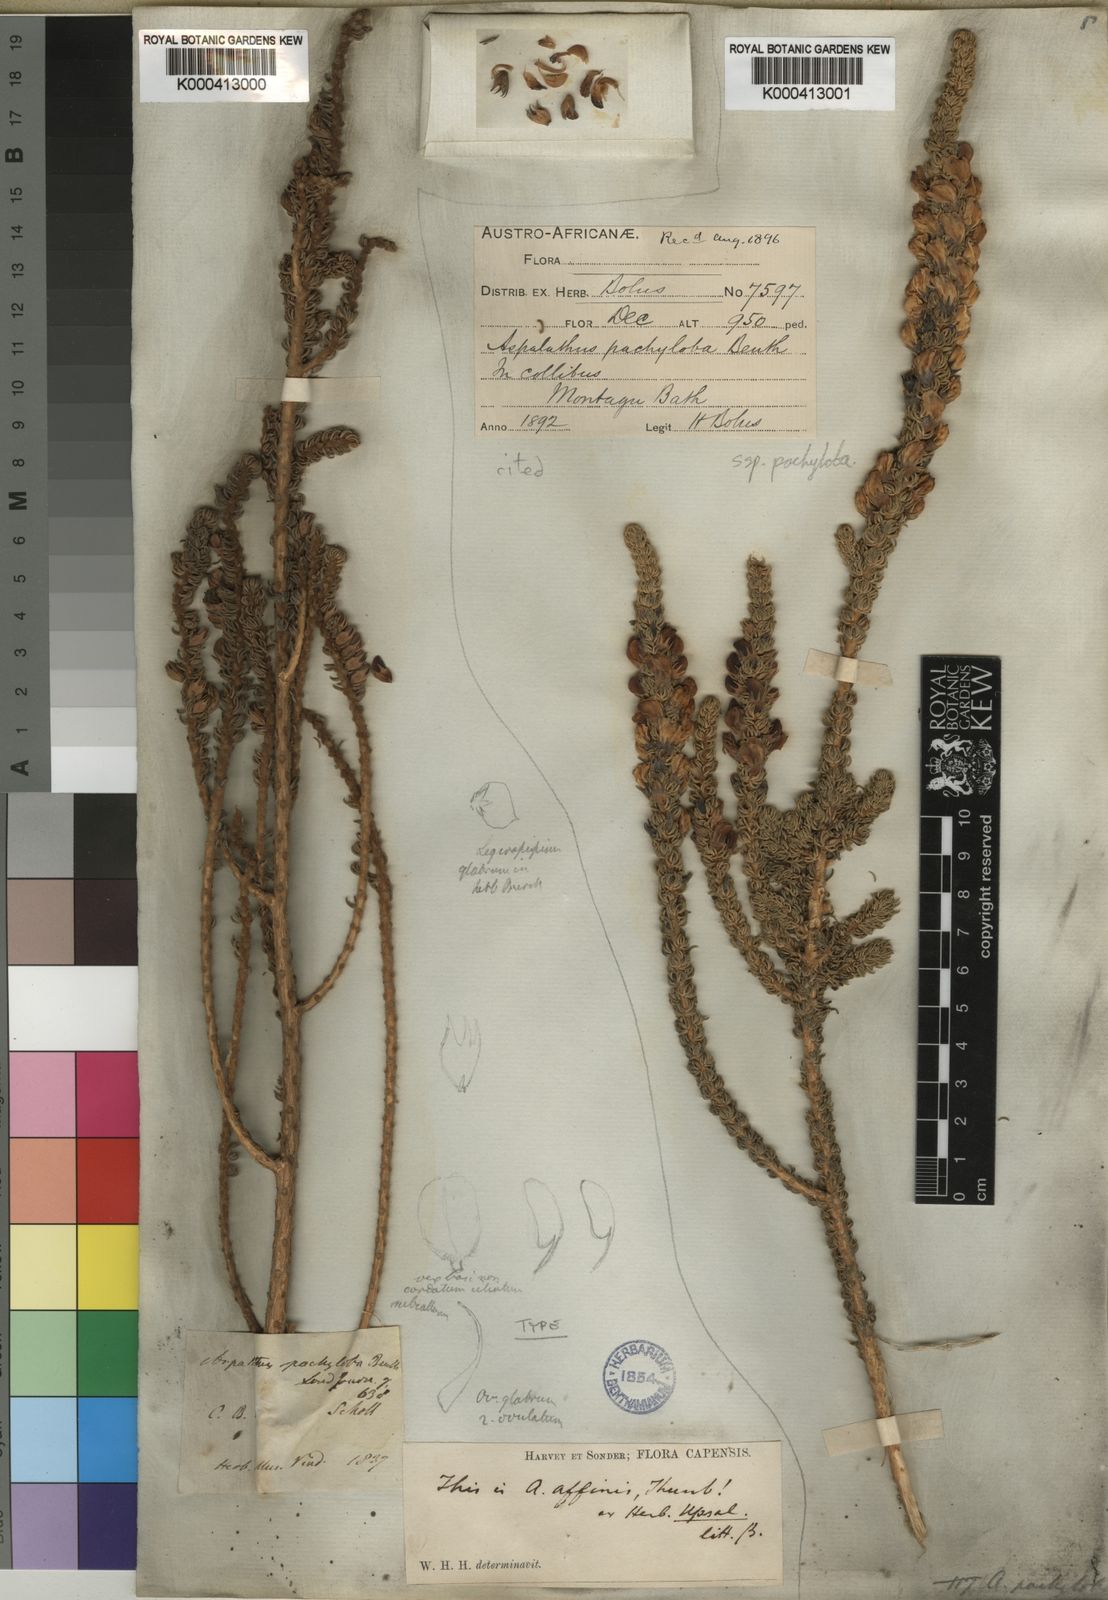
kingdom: Plantae
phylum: Tracheophyta
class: Magnoliopsida
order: Fabales
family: Fabaceae
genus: Aspalathus
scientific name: Aspalathus pachyloba
